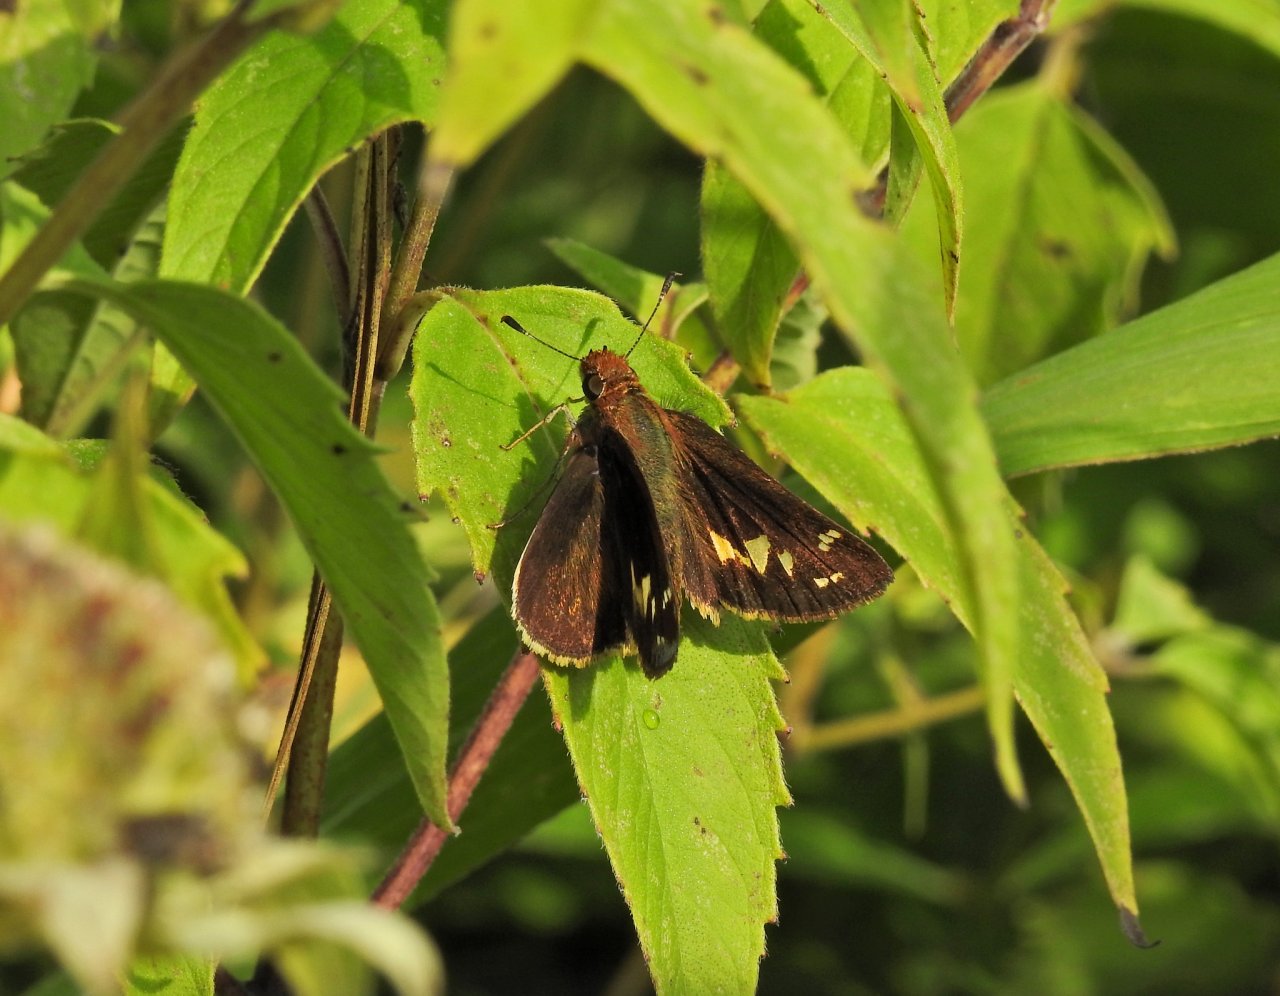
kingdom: Animalia
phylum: Arthropoda
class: Insecta
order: Lepidoptera
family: Hesperiidae
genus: Lon
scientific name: Lon zabulon
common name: Zabulon Skipper
